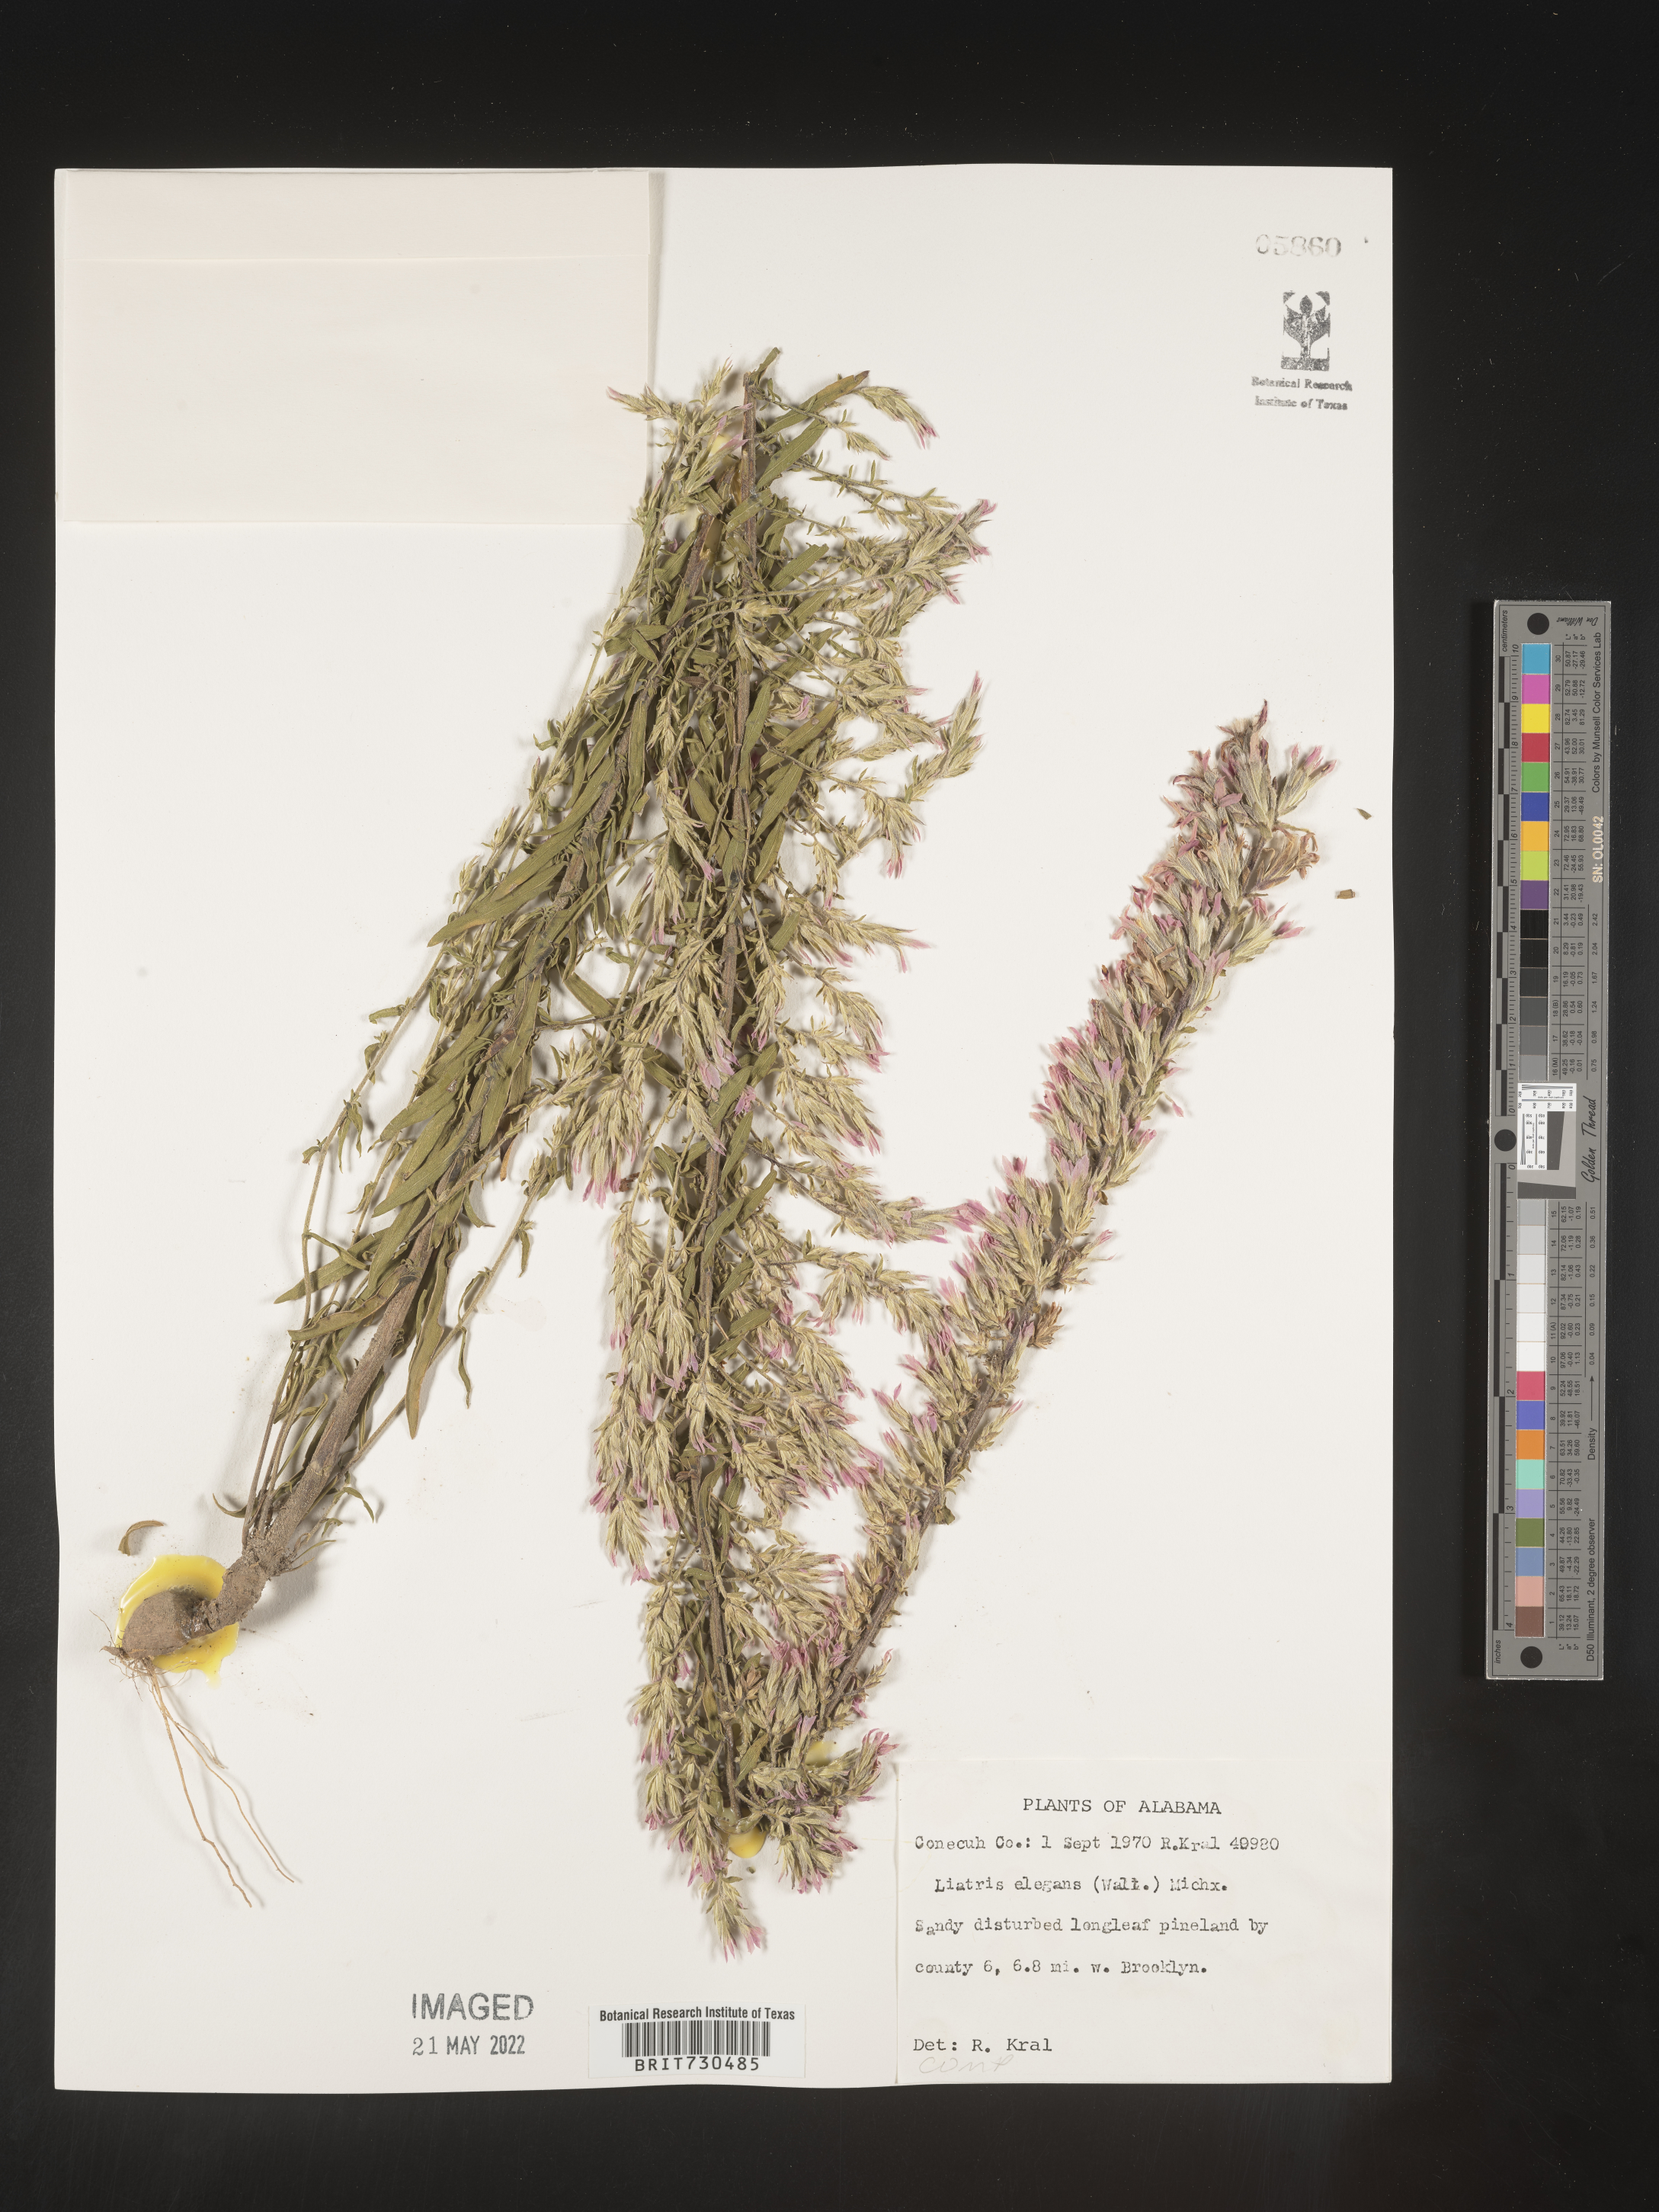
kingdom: Plantae
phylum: Tracheophyta
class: Magnoliopsida
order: Asterales
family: Asteraceae
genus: Liatris
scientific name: Liatris elegans
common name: Pinkscale gayfeather
